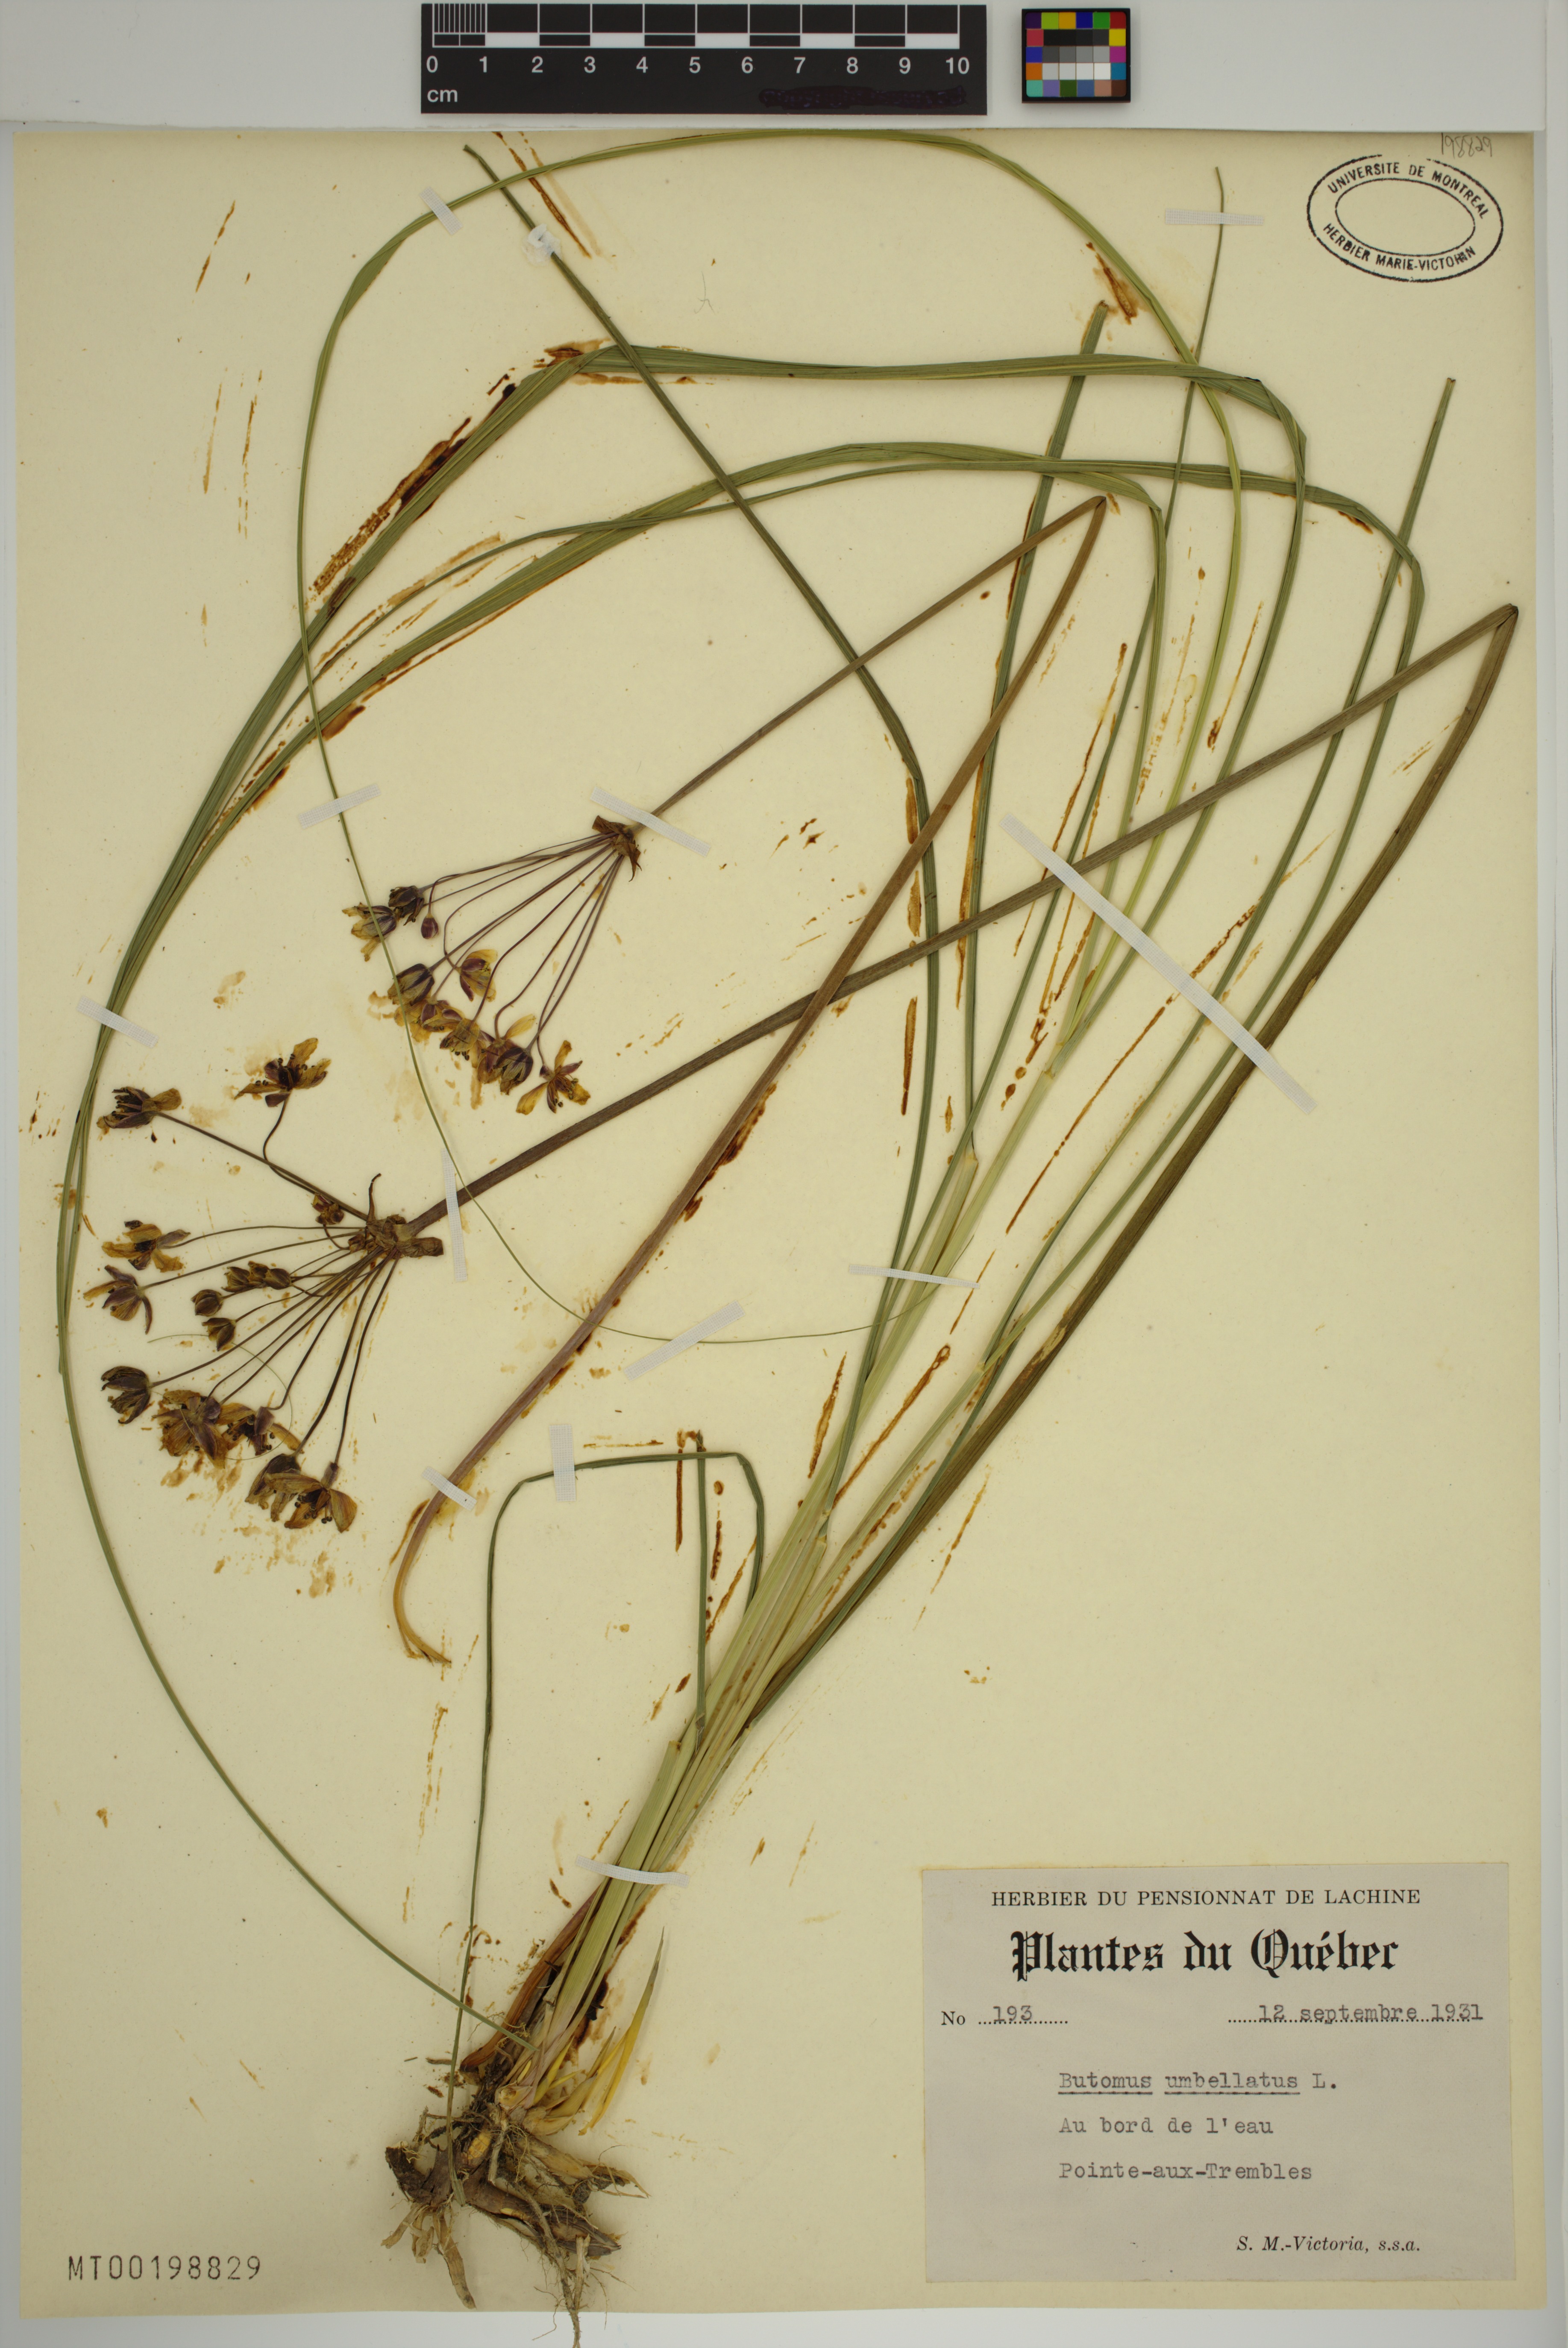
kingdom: Plantae
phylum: Tracheophyta
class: Liliopsida
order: Alismatales
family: Butomaceae
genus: Butomus
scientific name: Butomus umbellatus
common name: Flowering-rush
